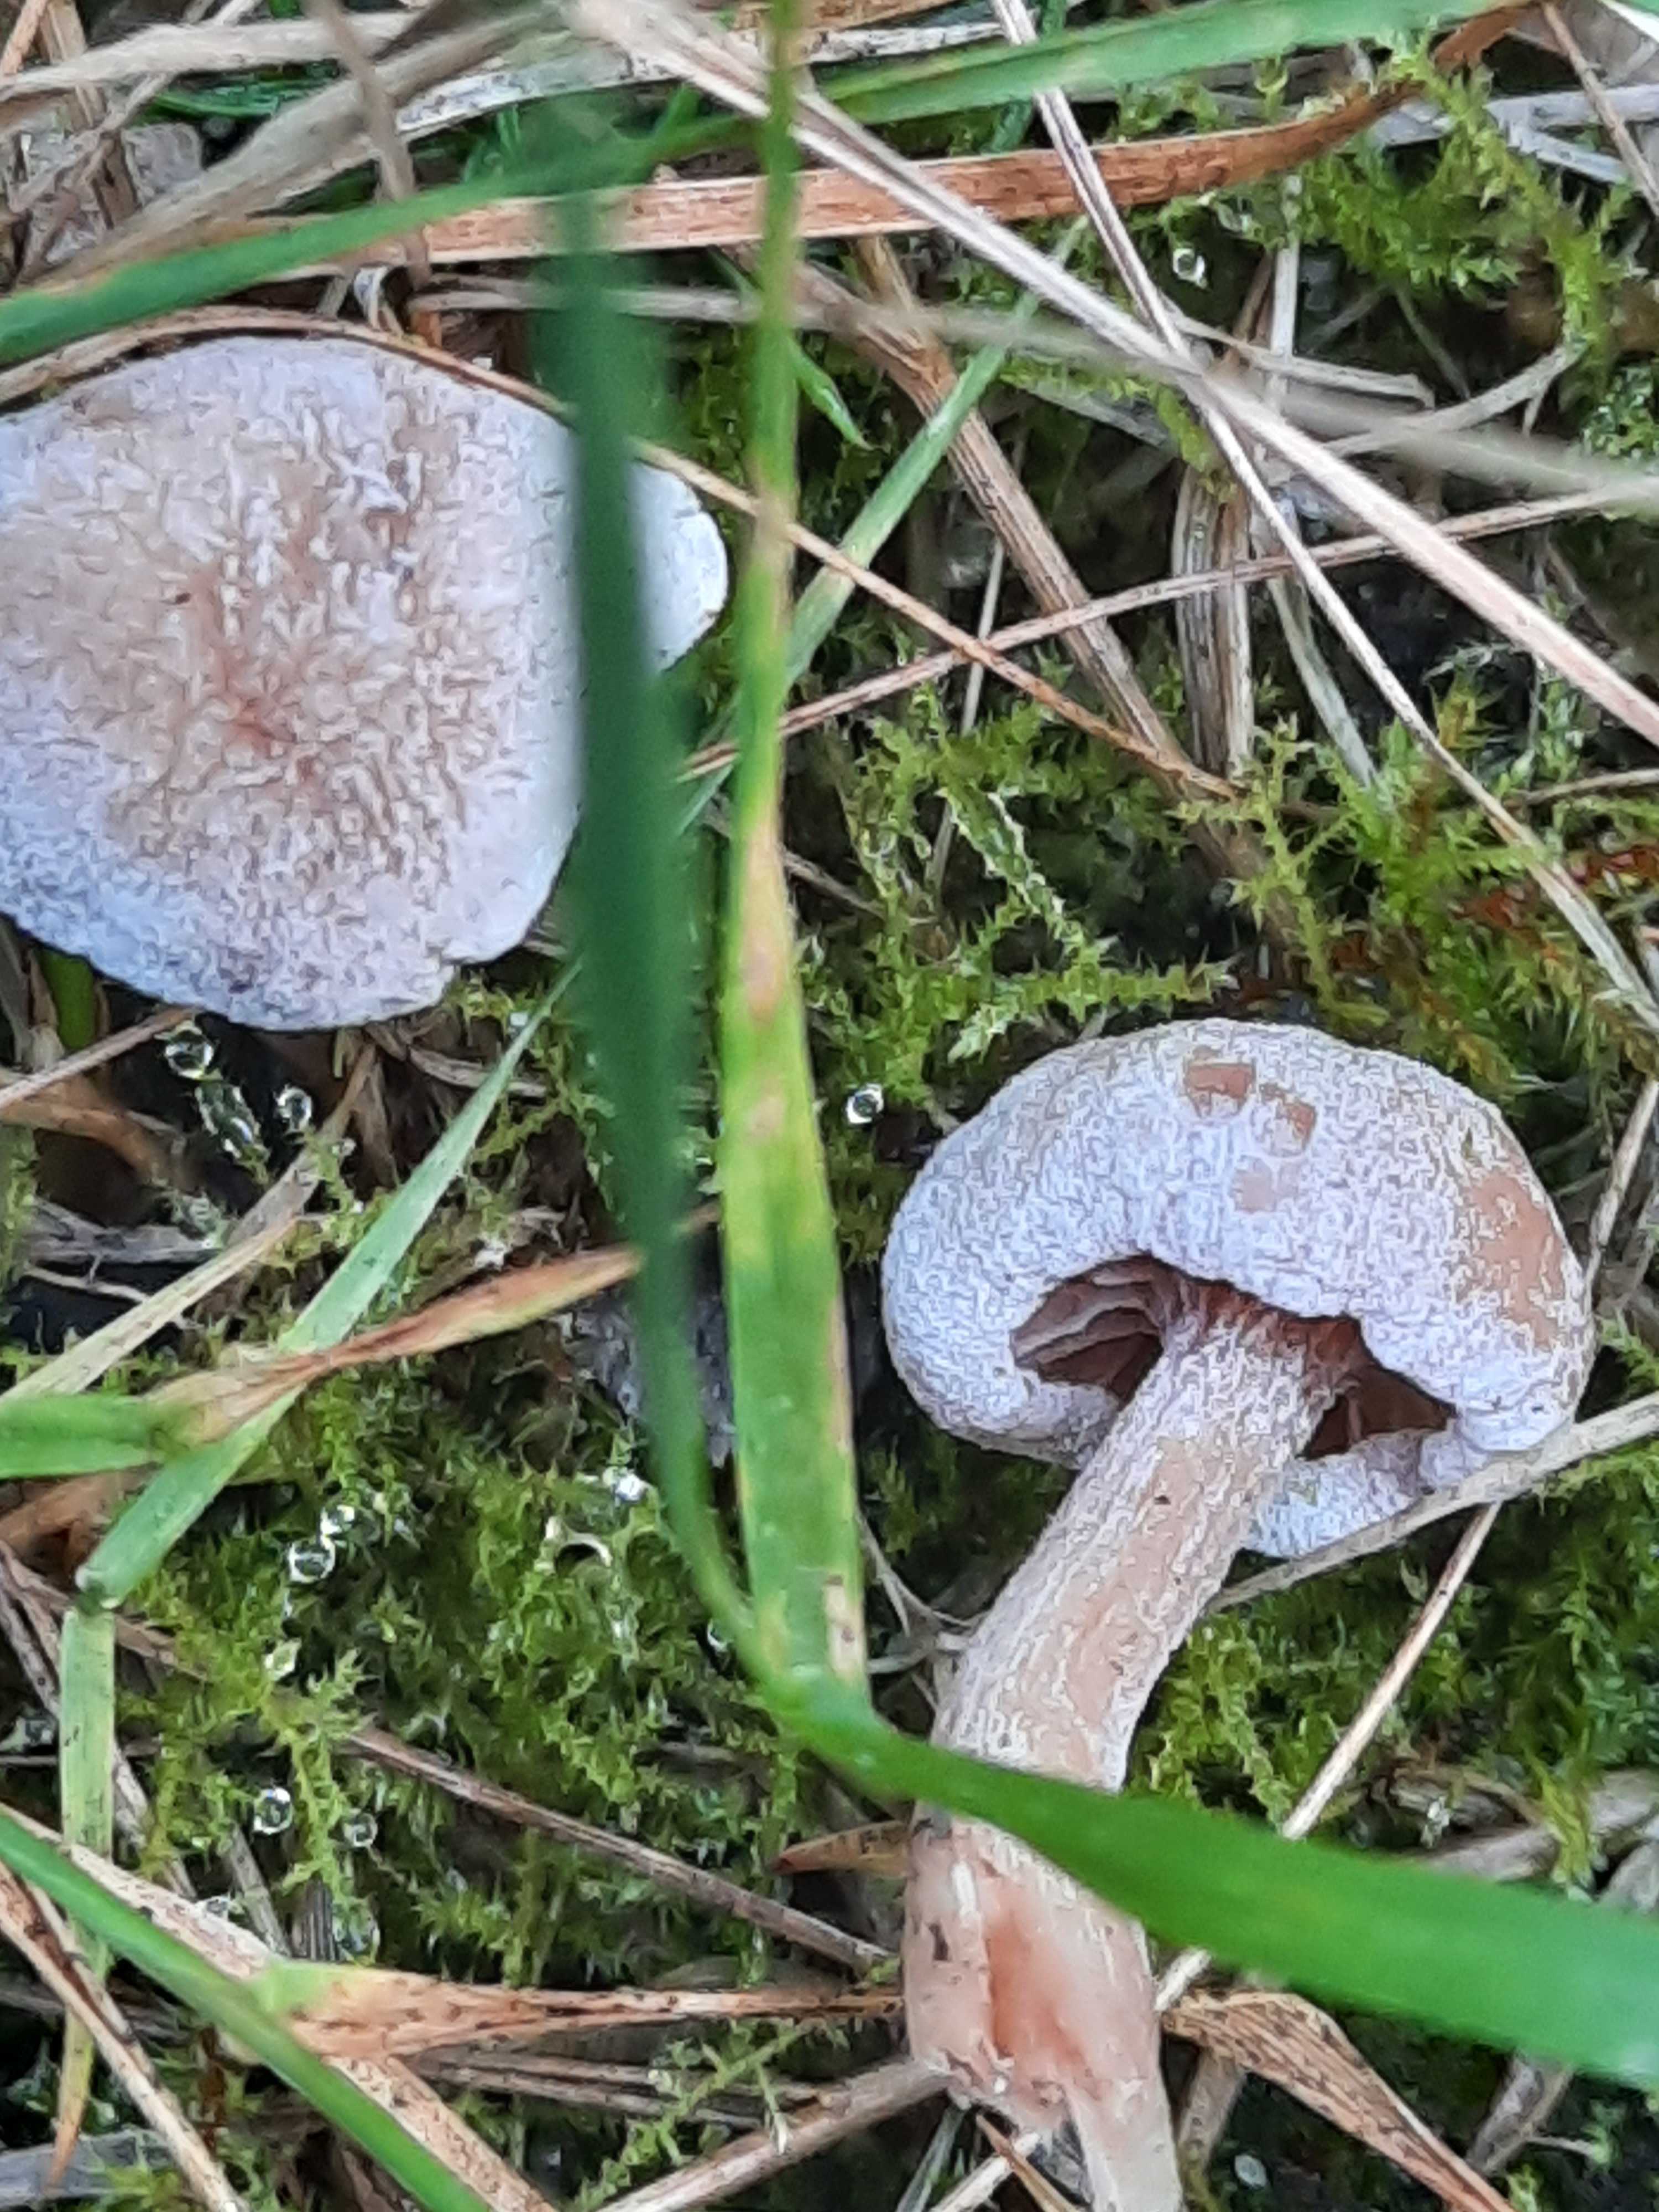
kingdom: Fungi
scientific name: Fungi
